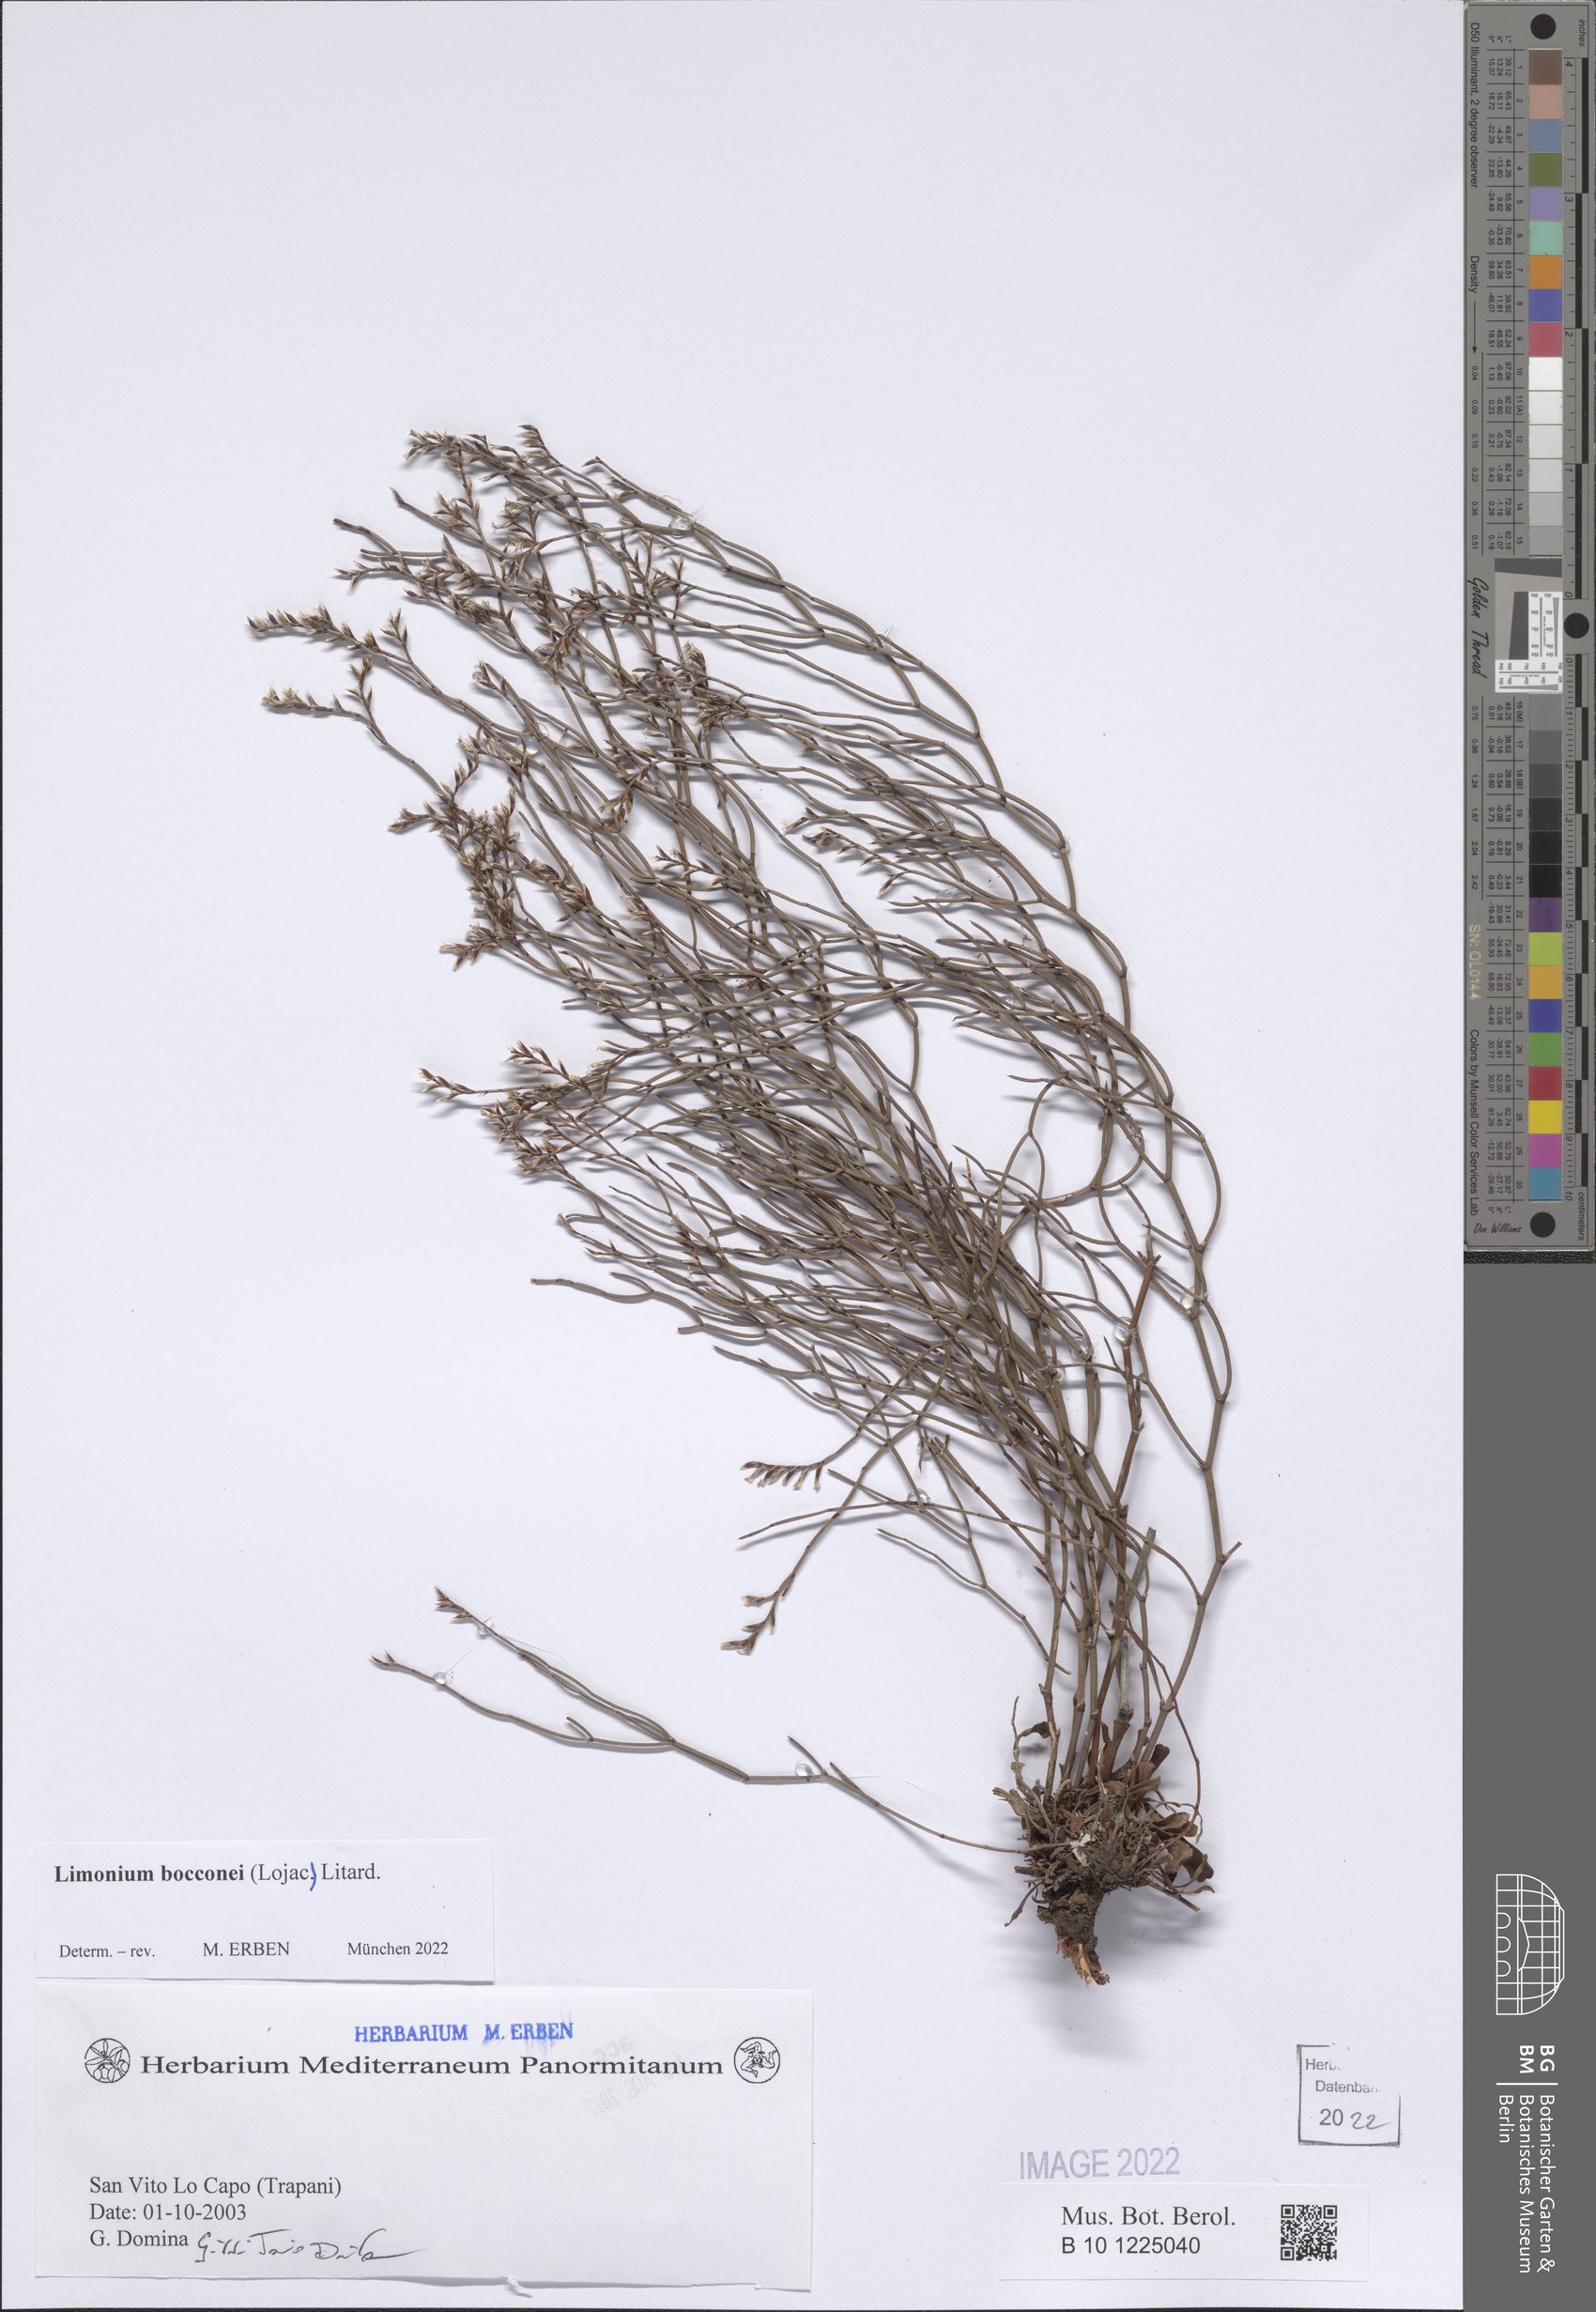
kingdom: Plantae
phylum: Tracheophyta
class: Magnoliopsida
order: Caryophyllales
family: Plumbaginaceae
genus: Limonium
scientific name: Limonium bocconei
